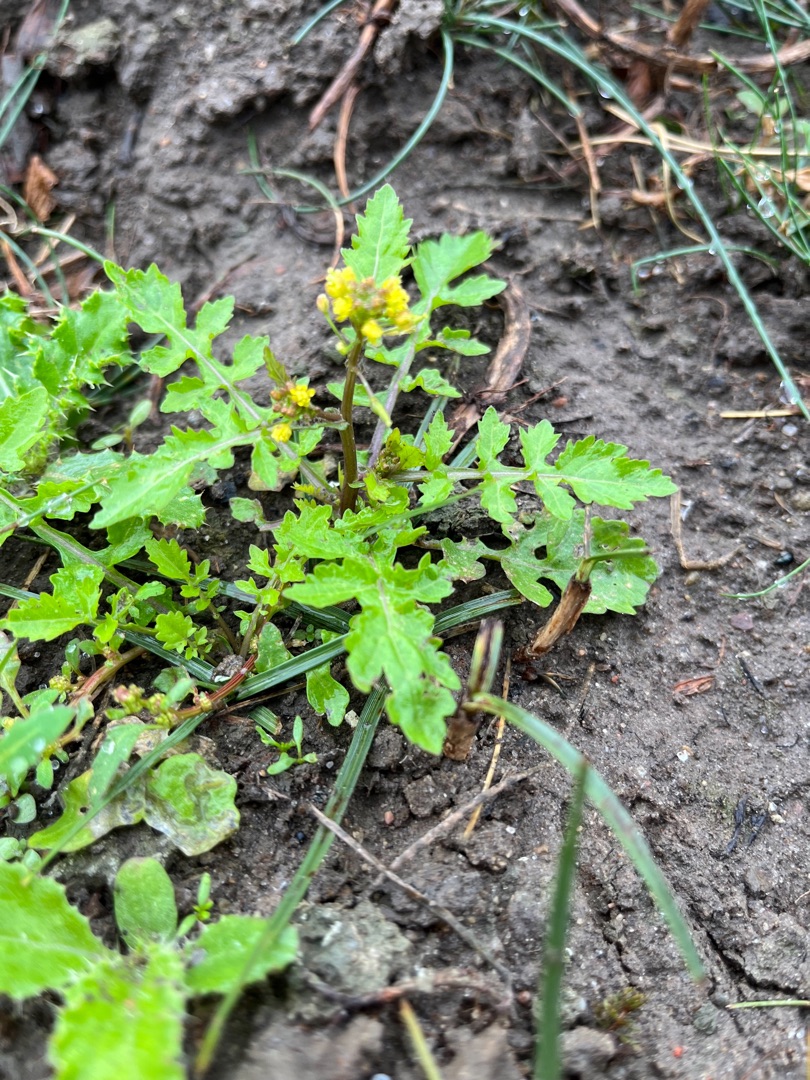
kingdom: Plantae
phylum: Tracheophyta
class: Magnoliopsida
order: Brassicales
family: Brassicaceae
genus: Rorippa
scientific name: Rorippa palustris
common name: Kær-guldkarse
